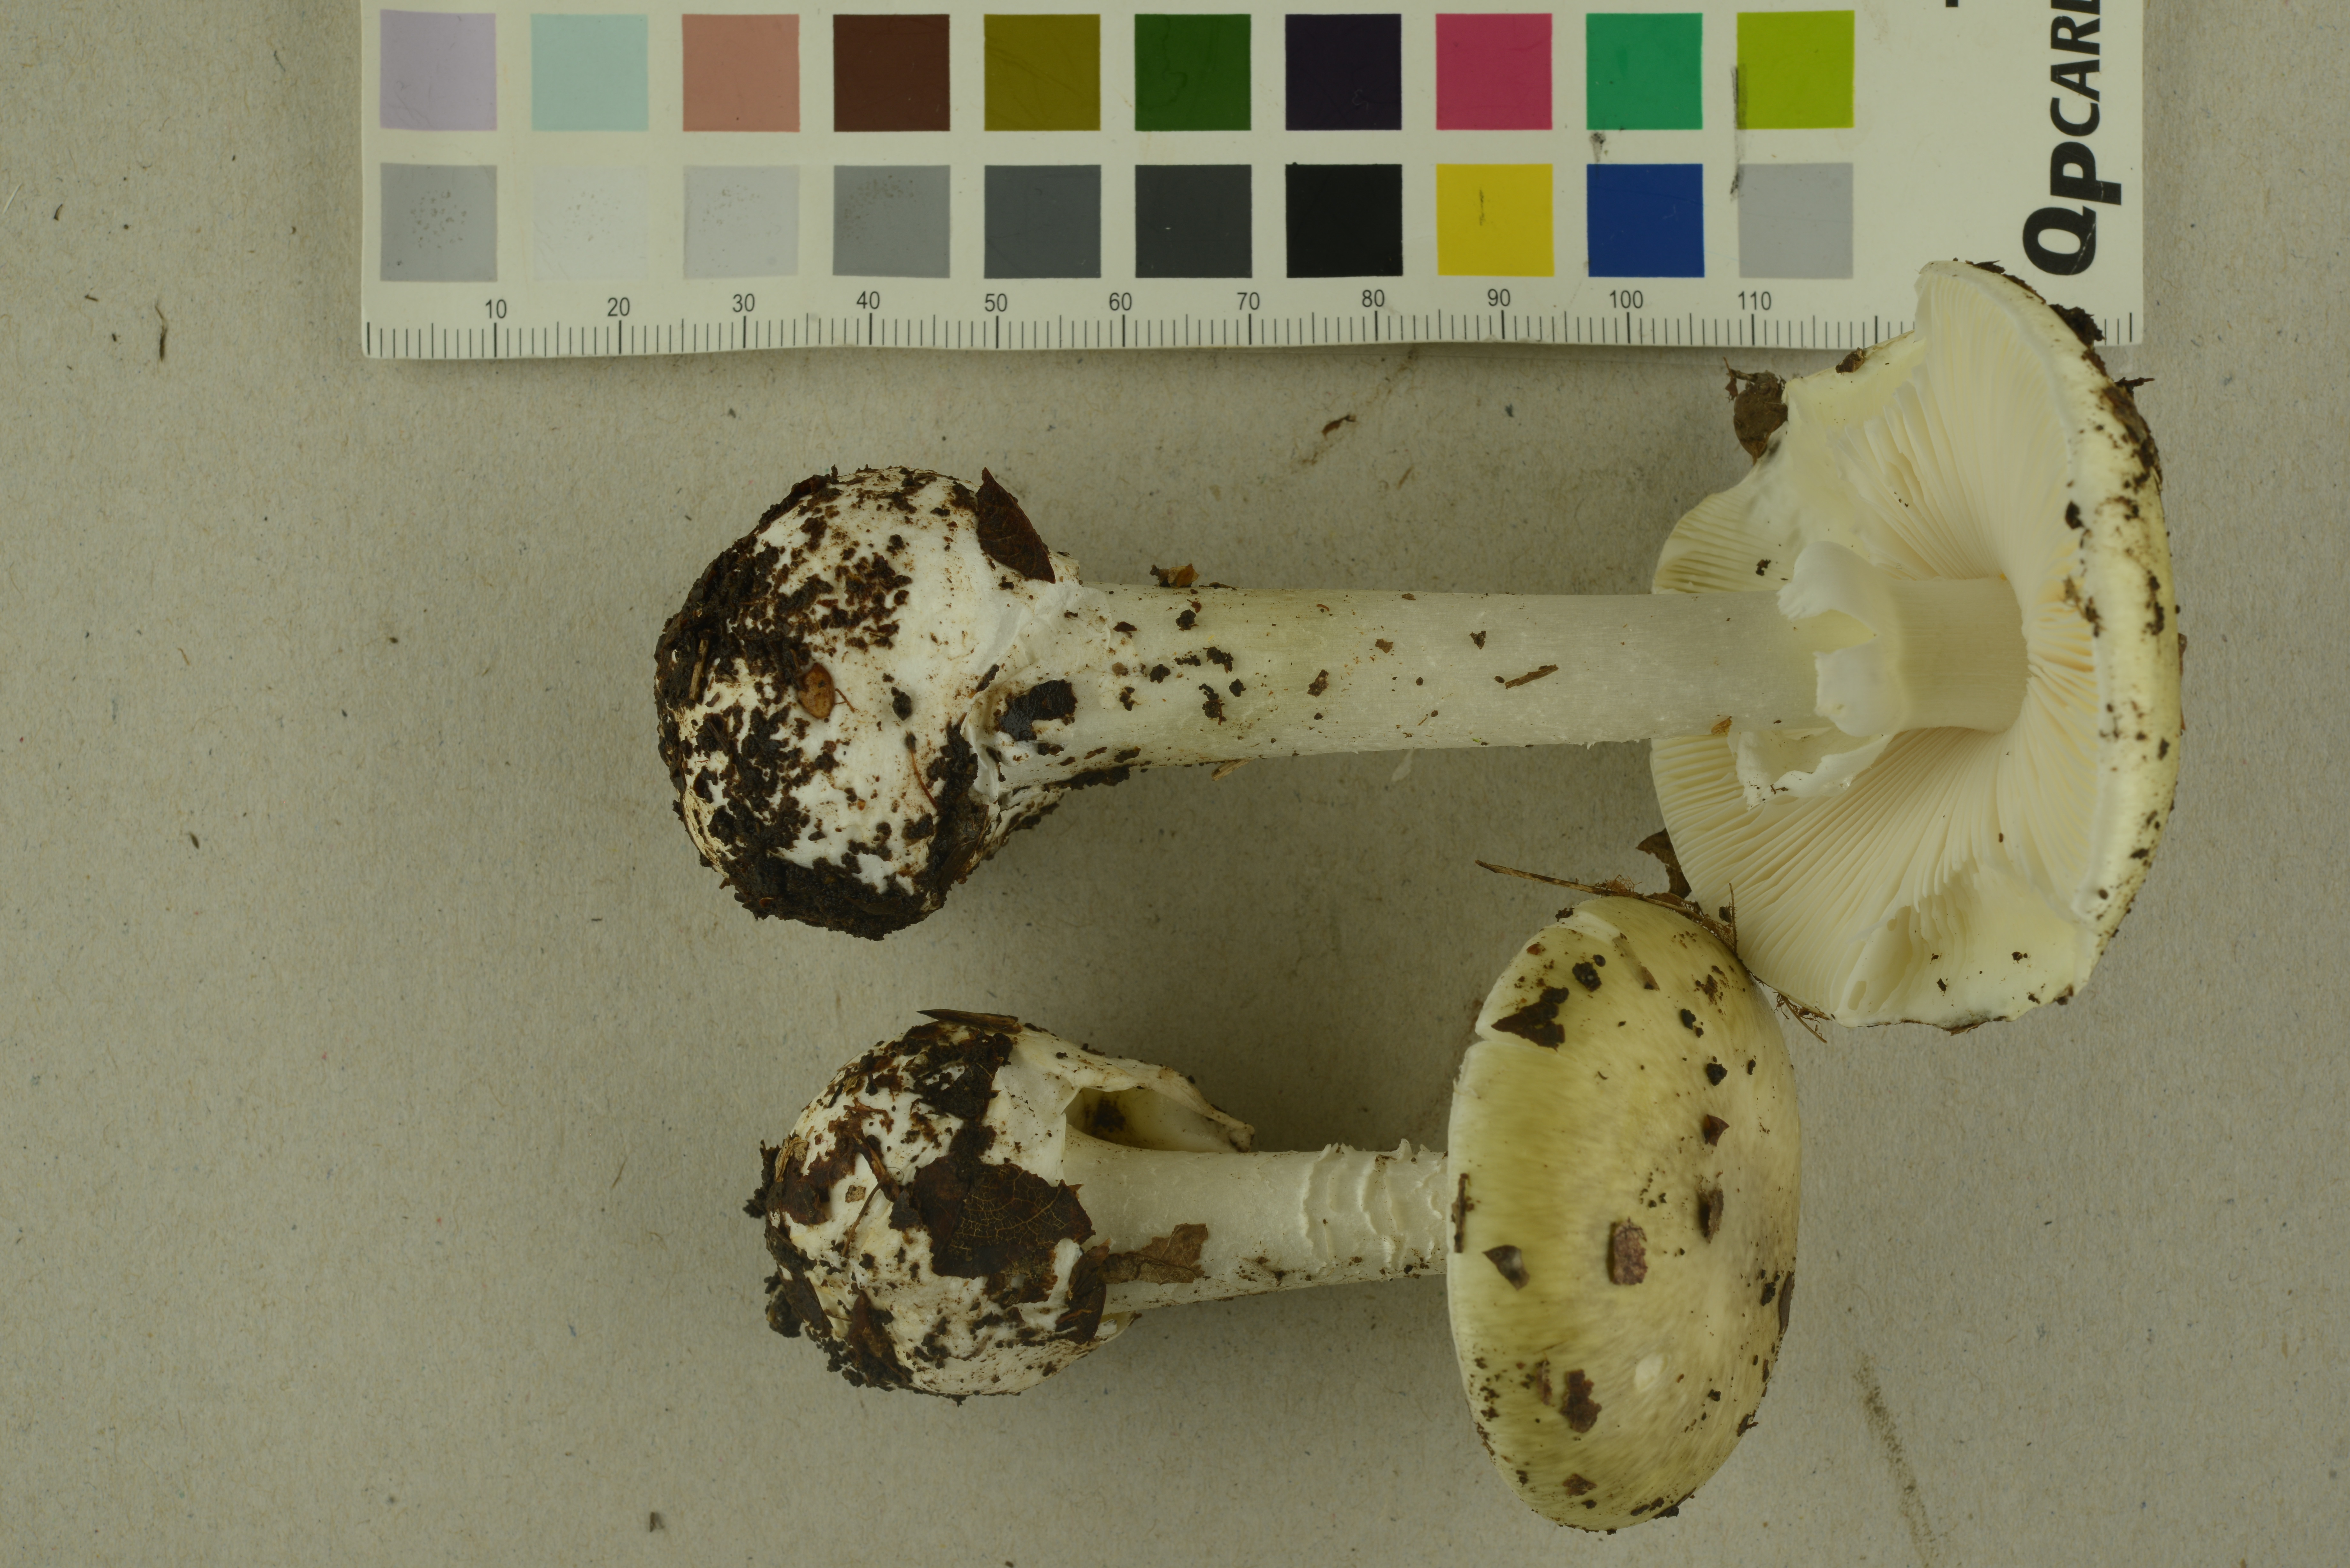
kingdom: Fungi
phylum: Basidiomycota
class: Agaricomycetes
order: Agaricales
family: Amanitaceae
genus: Amanita
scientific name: Amanita phalloides
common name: Death cap
